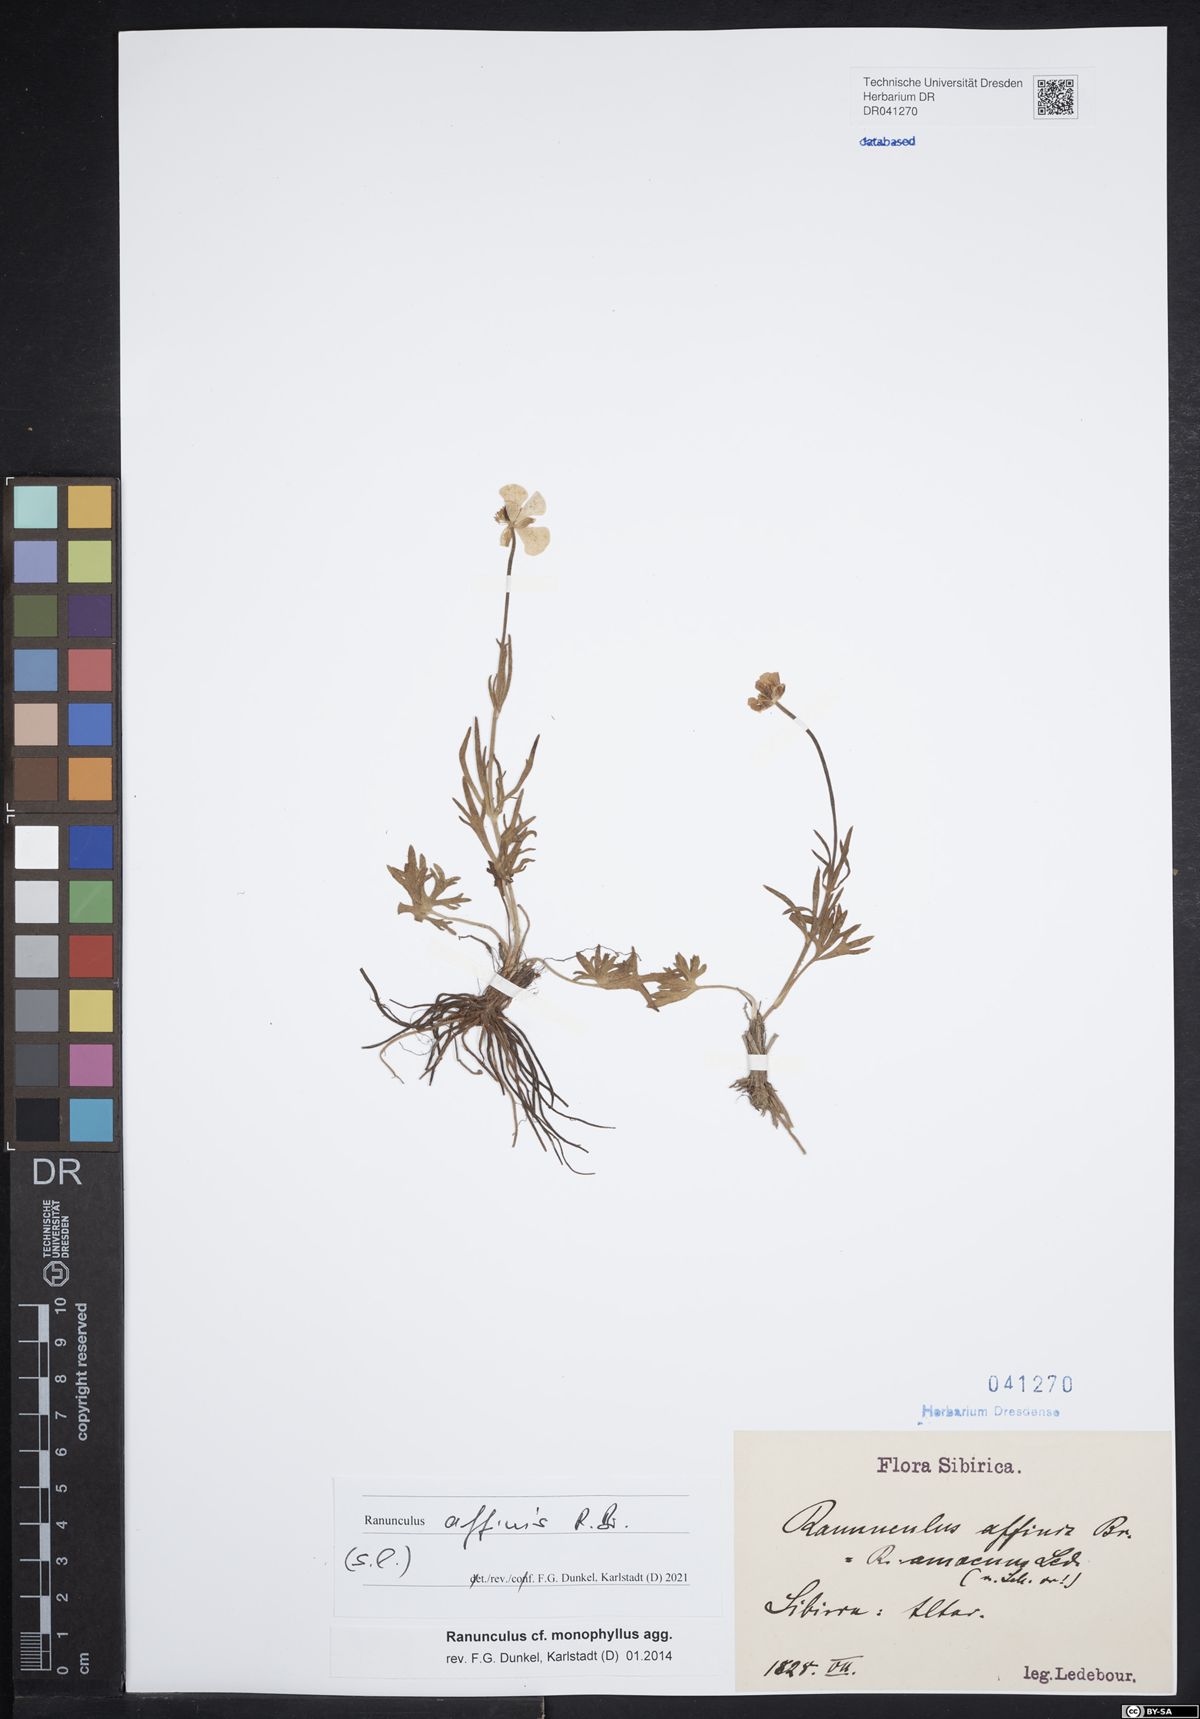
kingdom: Plantae
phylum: Tracheophyta
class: Magnoliopsida
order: Ranunculales
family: Ranunculaceae
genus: Ranunculus
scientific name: Ranunculus arcticus
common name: Bird's-foot buttercup
